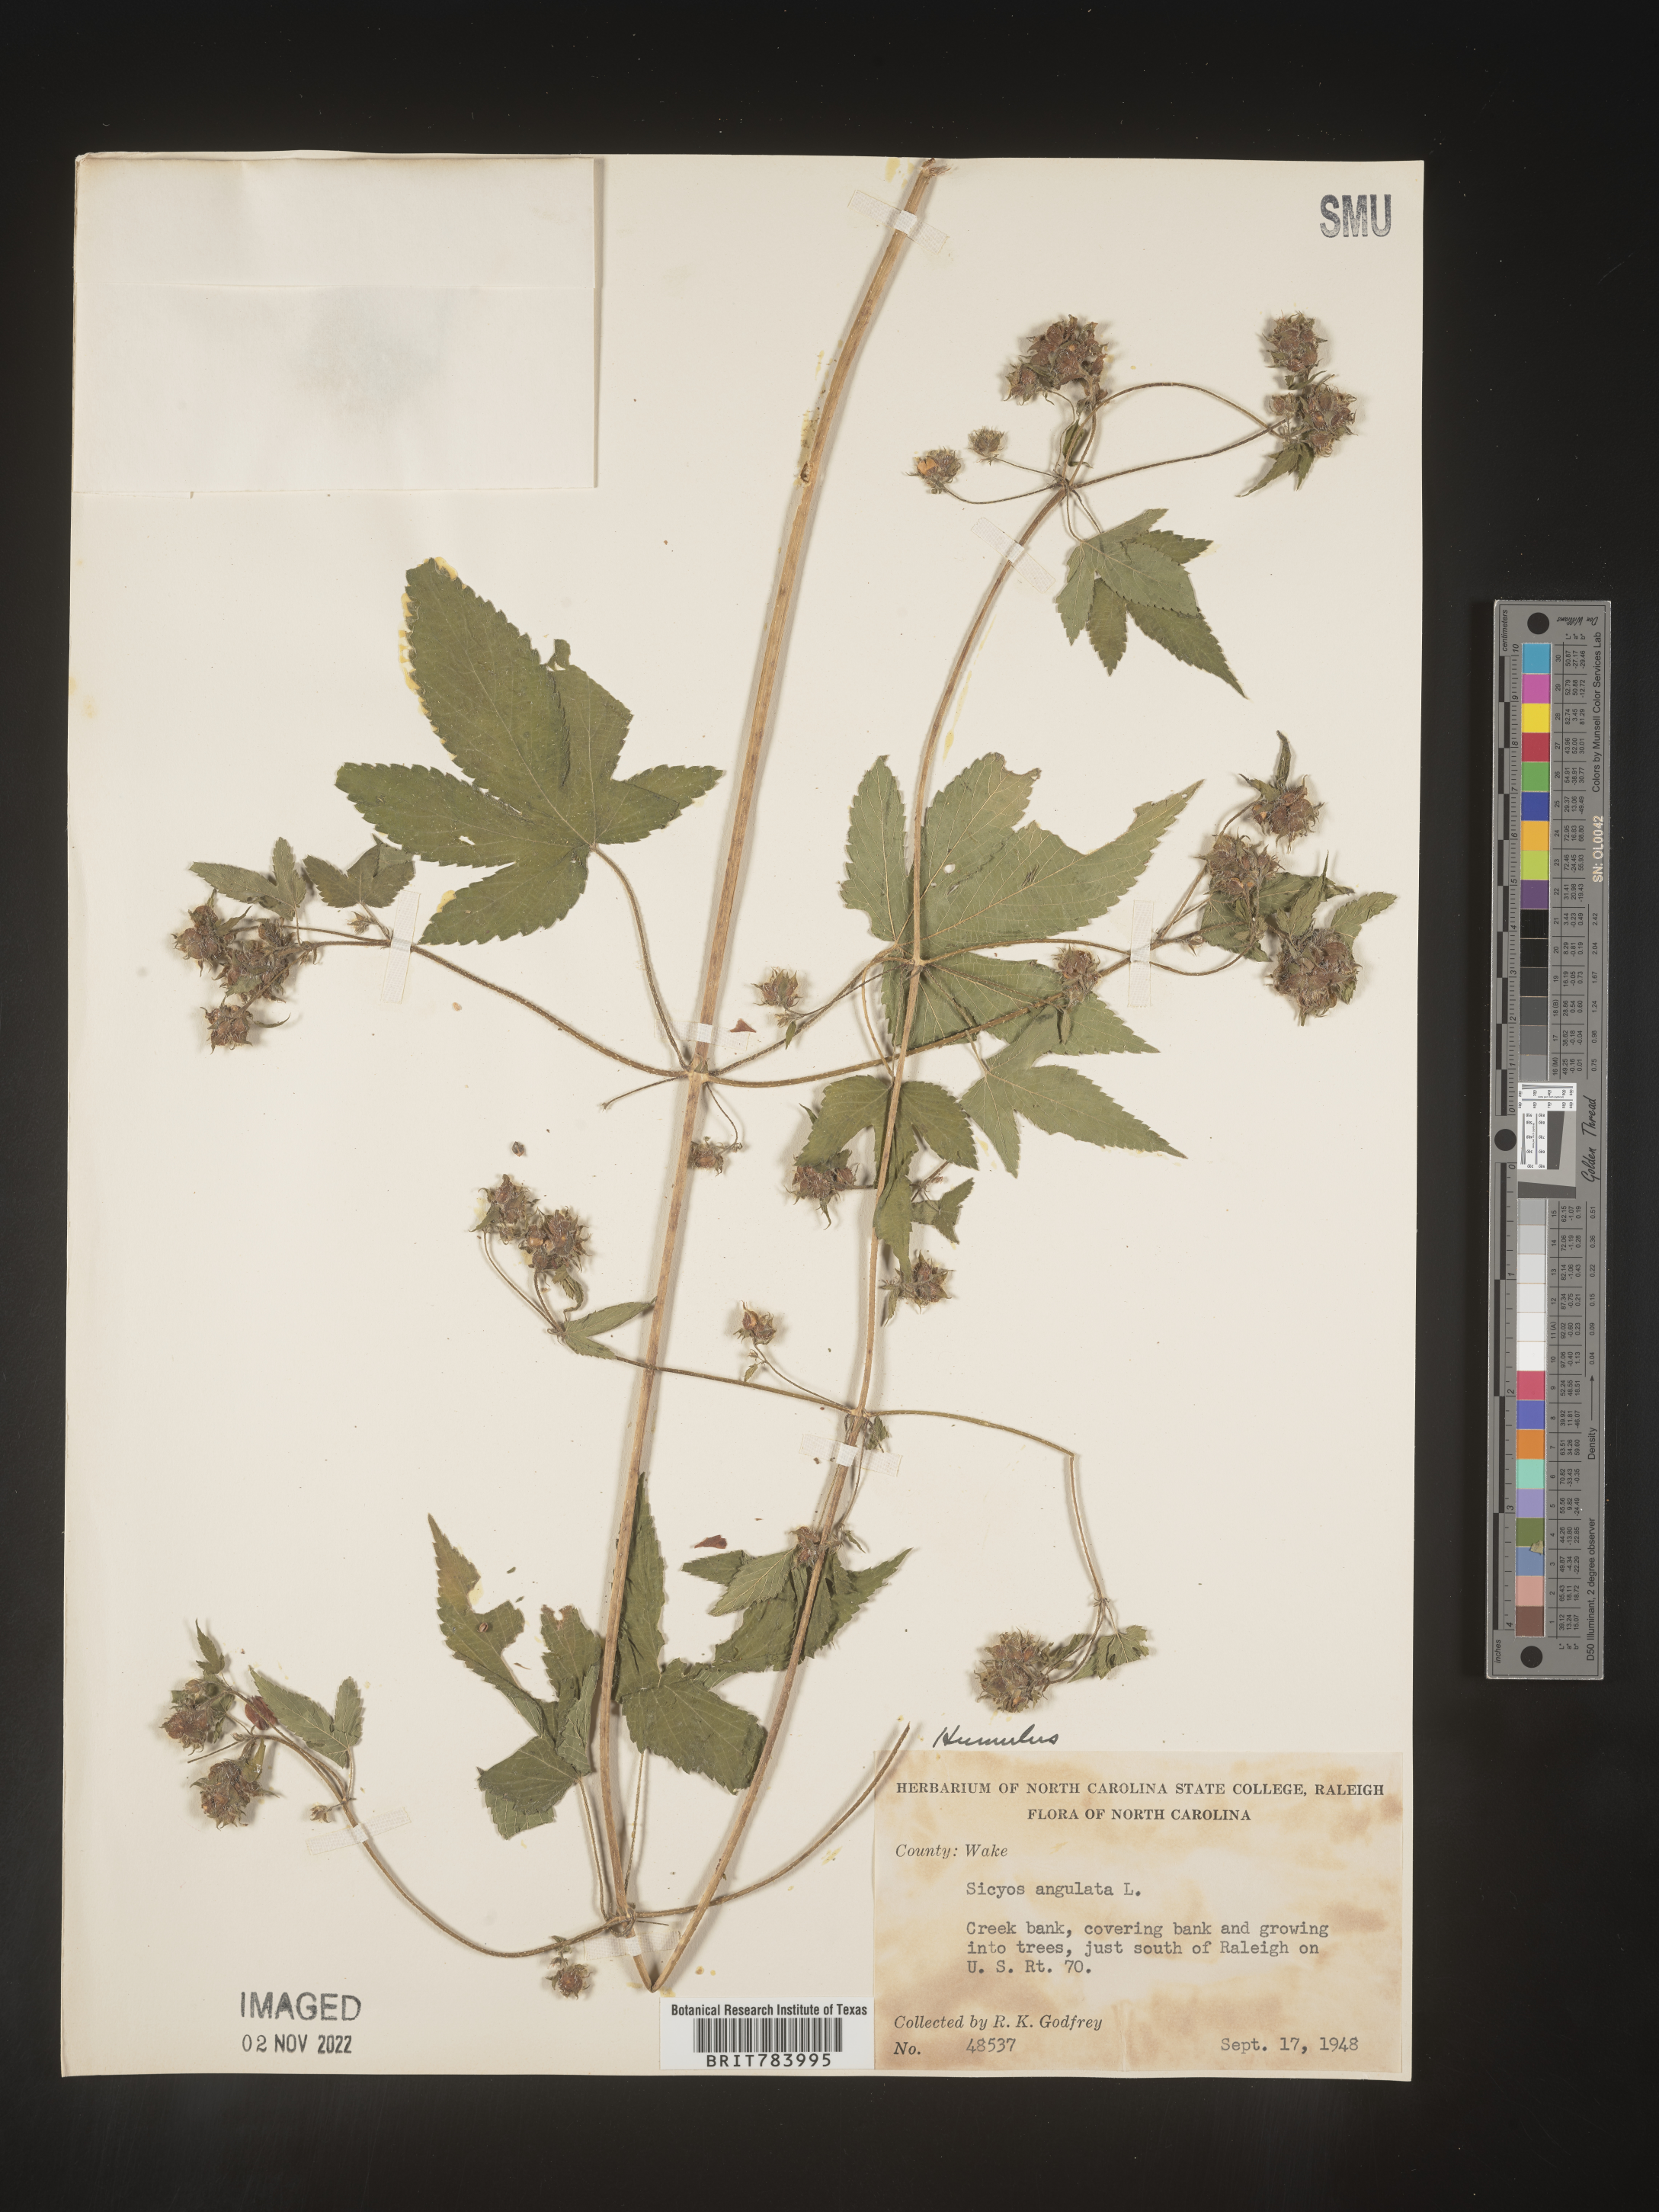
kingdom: Plantae
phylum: Tracheophyta
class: Magnoliopsida
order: Rosales
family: Cannabaceae
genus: Humulus
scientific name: Humulus
